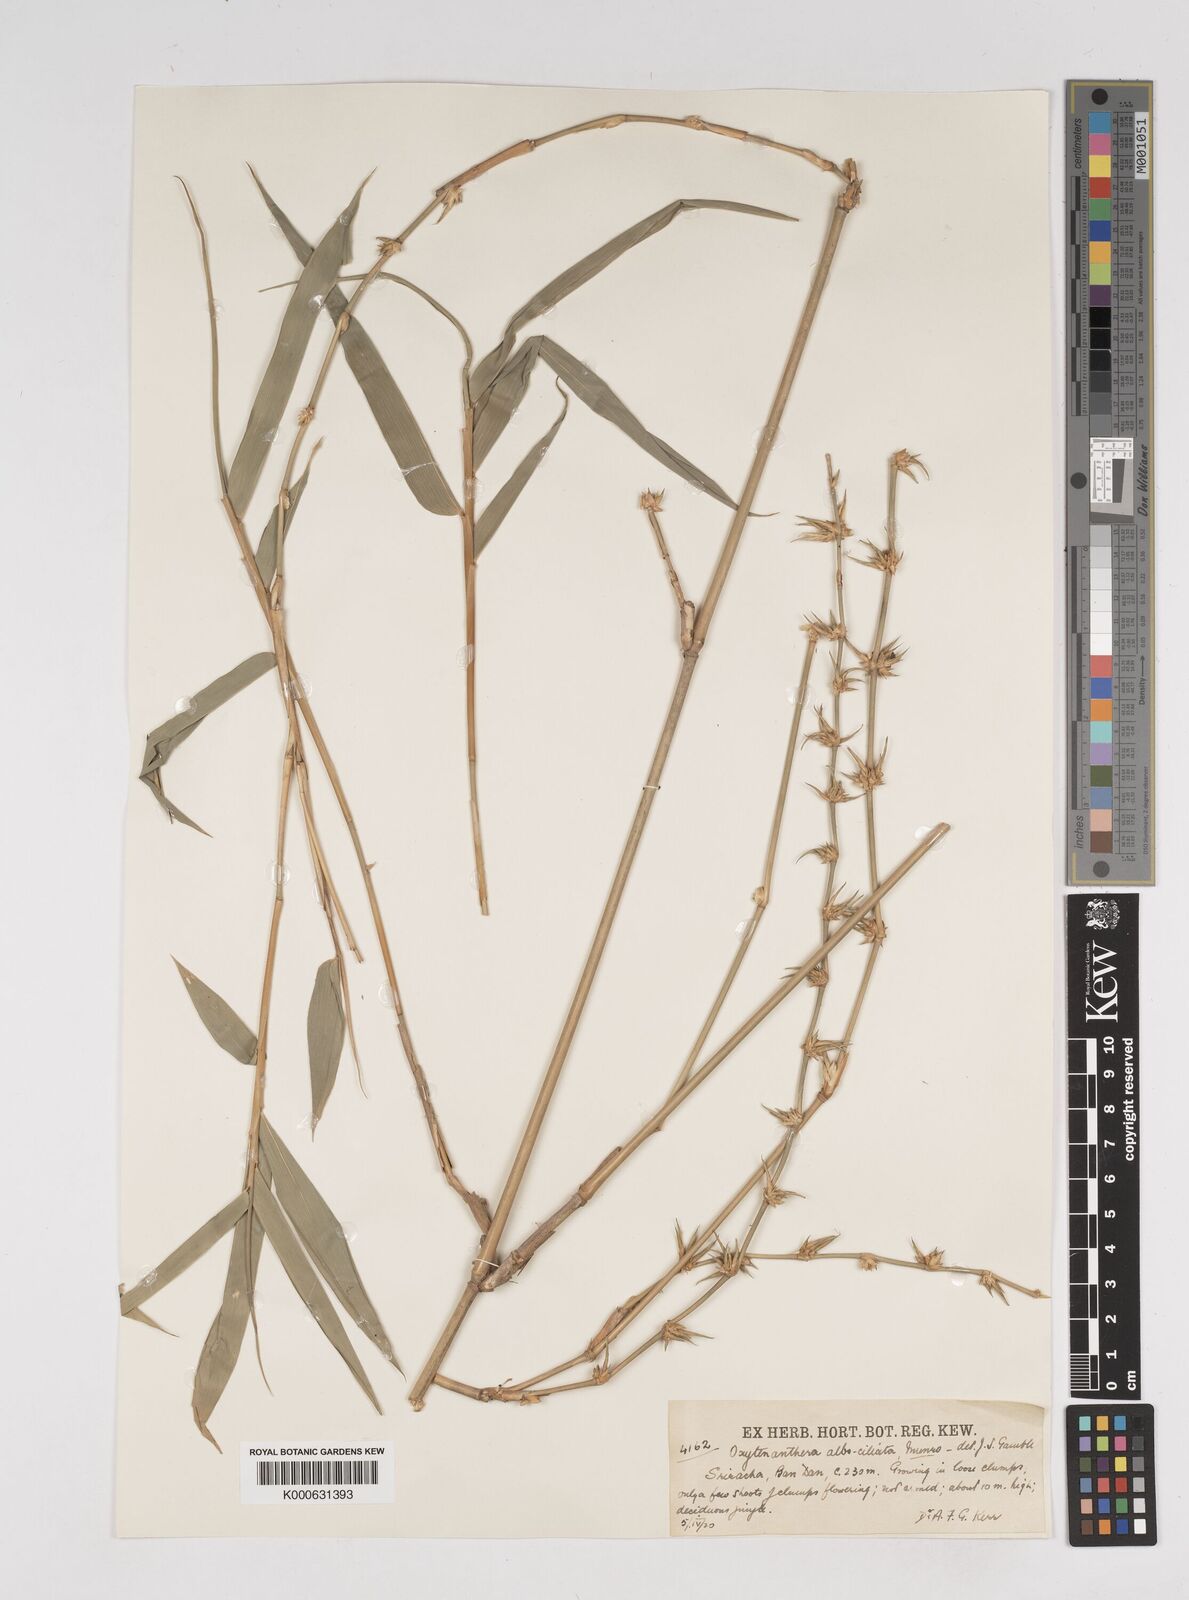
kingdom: Plantae
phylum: Tracheophyta
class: Liliopsida
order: Poales
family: Poaceae
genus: Dendrocalamus
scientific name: Dendrocalamus
